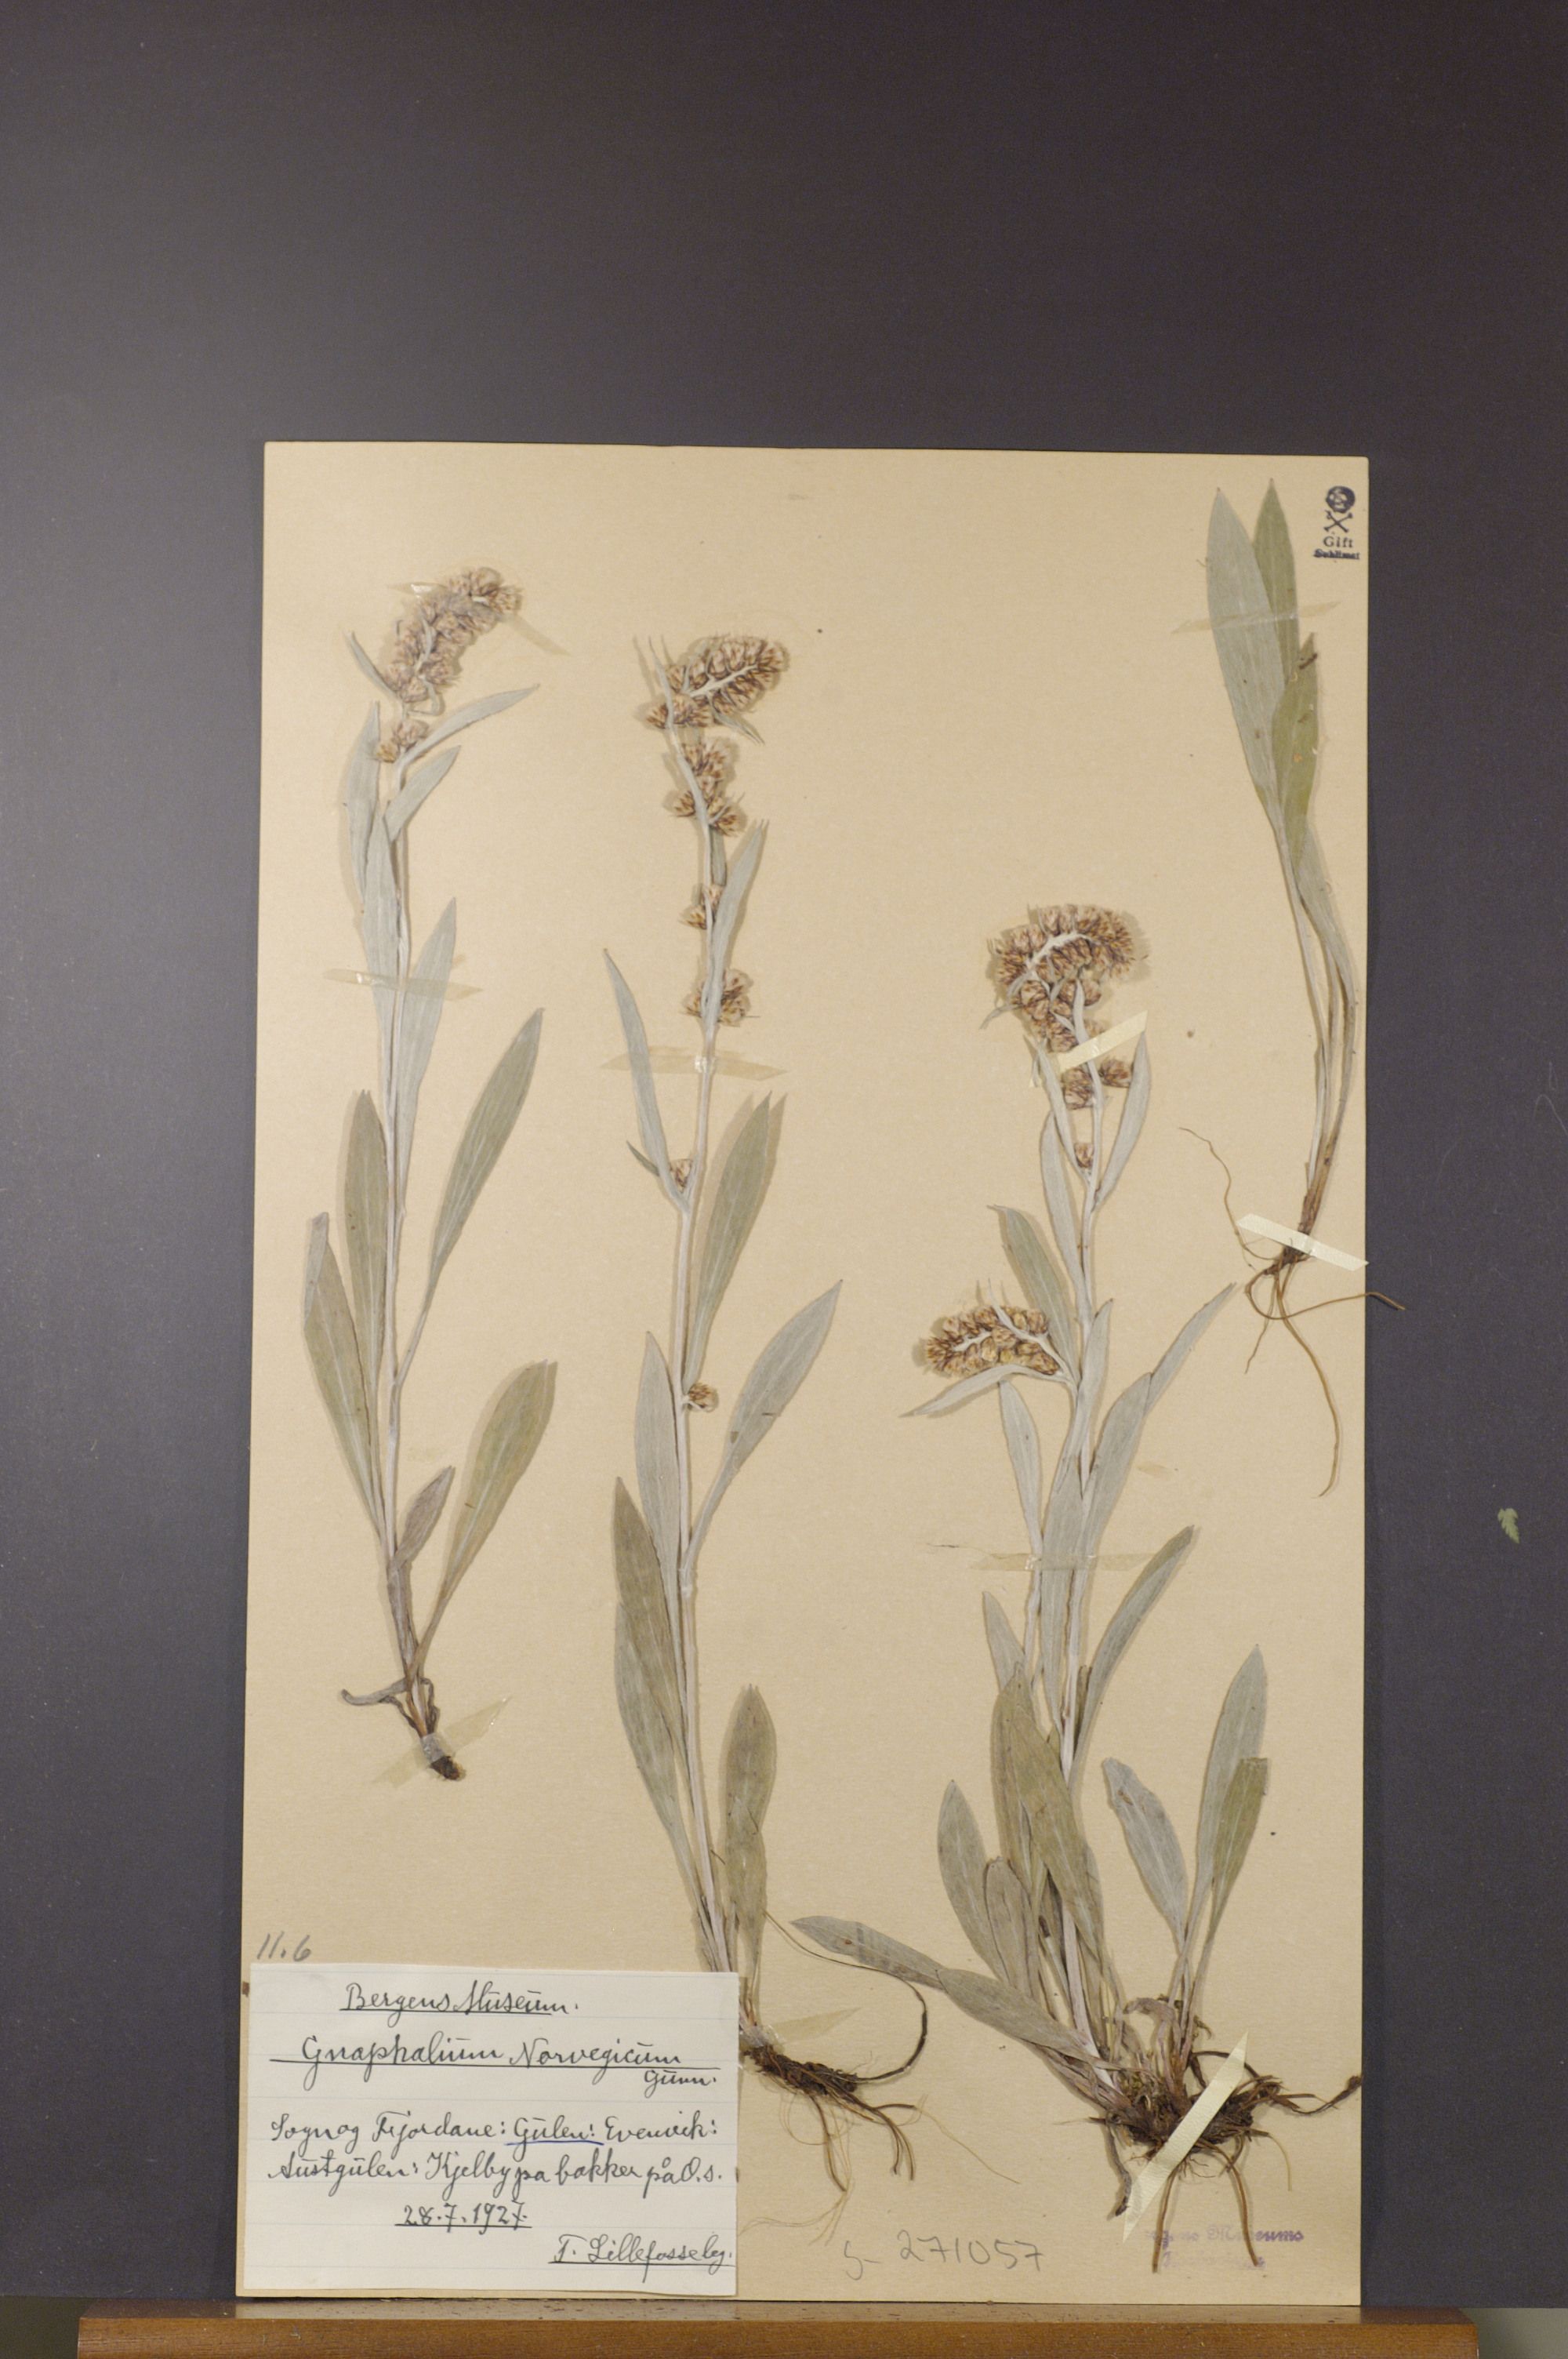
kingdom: Plantae
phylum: Tracheophyta
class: Magnoliopsida
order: Asterales
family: Asteraceae
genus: Omalotheca
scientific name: Omalotheca norvegica
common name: Norwegian arctic-cudweed
